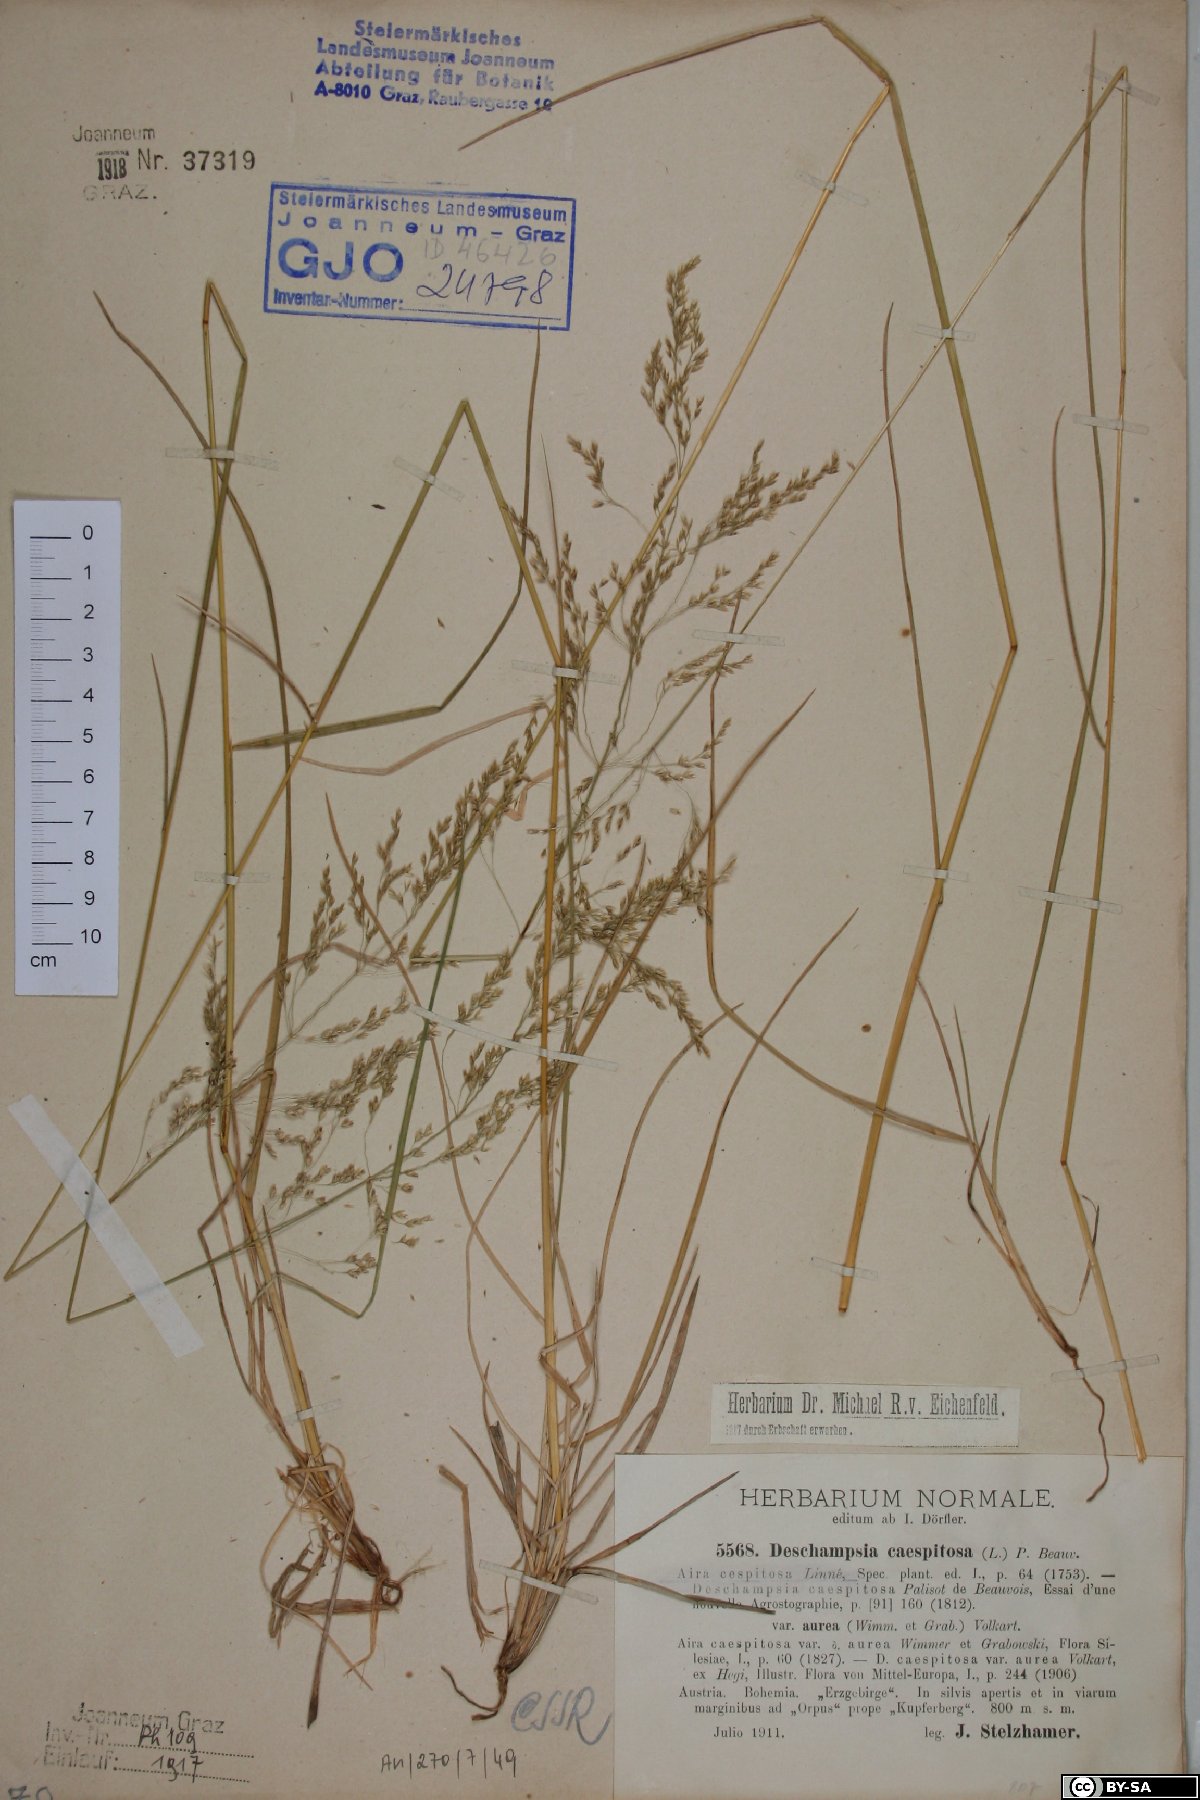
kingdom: Plantae
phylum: Tracheophyta
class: Liliopsida
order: Poales
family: Poaceae
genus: Deschampsia
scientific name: Deschampsia cespitosa
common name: Tufted hair-grass
